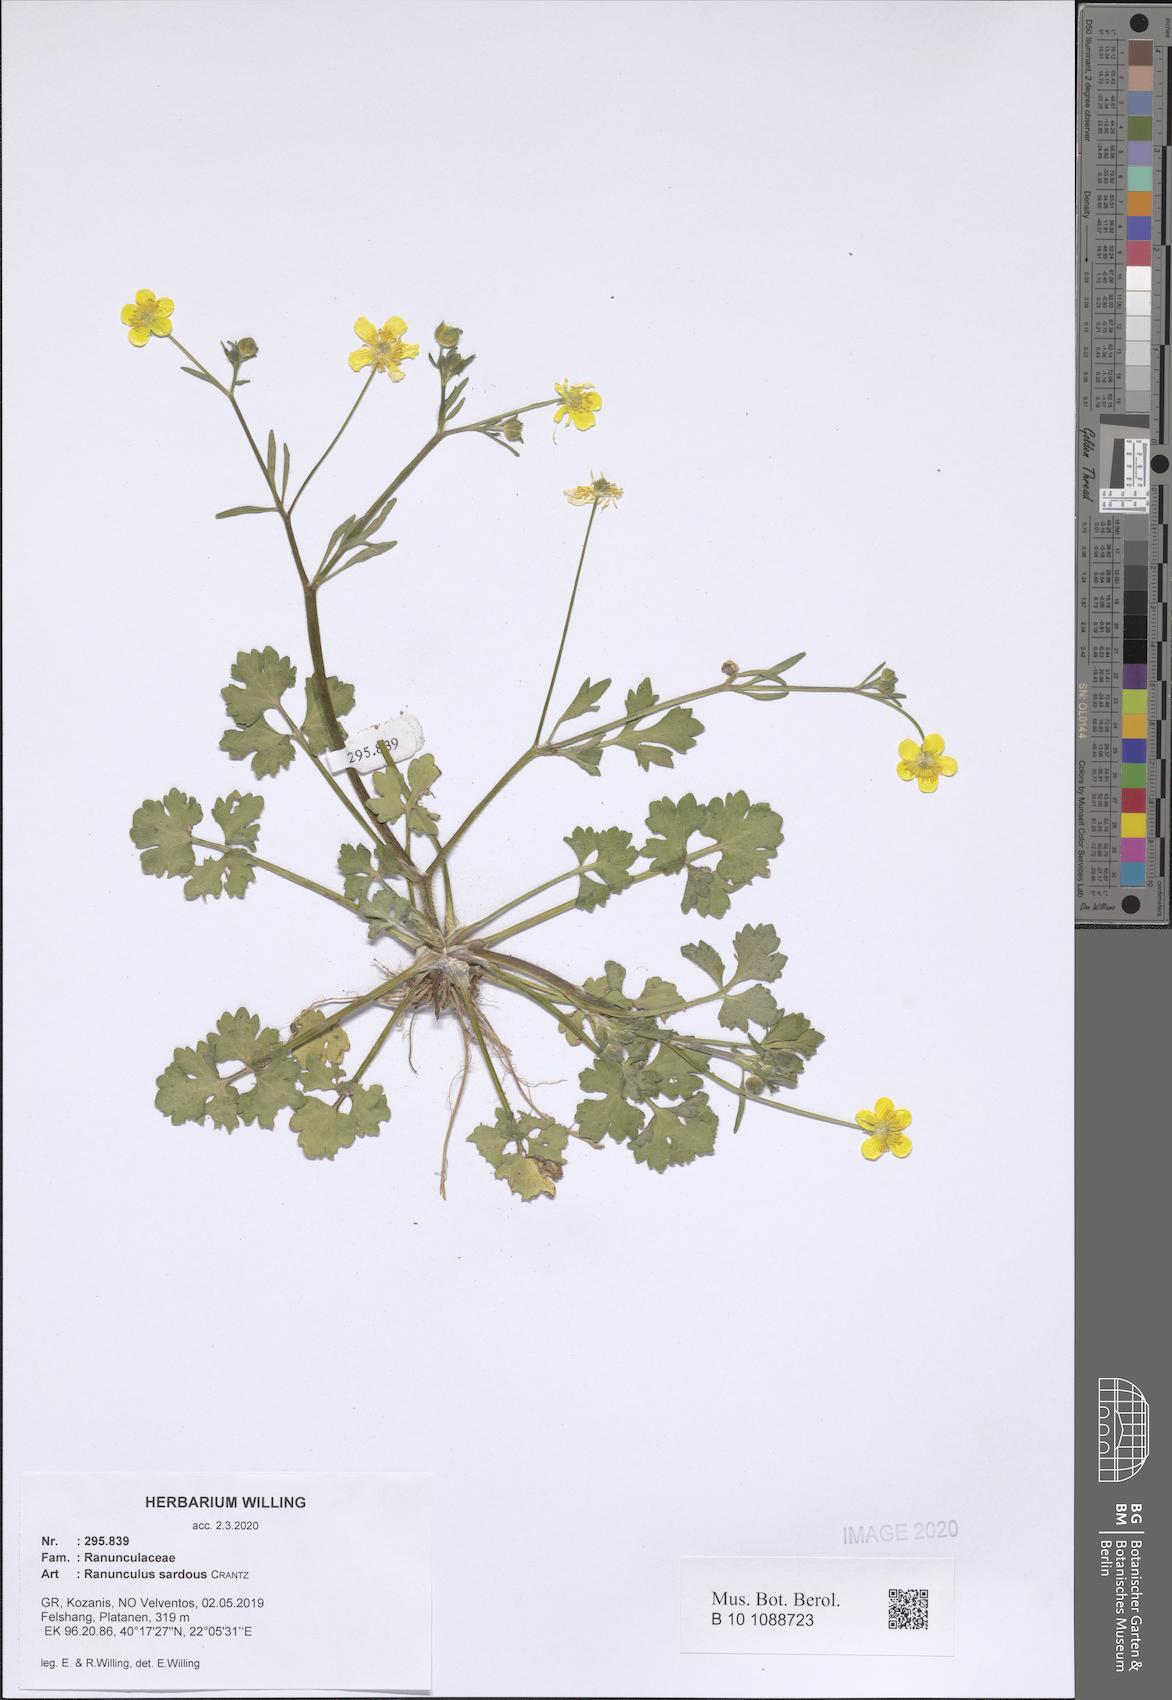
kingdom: Plantae
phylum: Tracheophyta
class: Magnoliopsida
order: Ranunculales
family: Ranunculaceae
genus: Ranunculus
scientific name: Ranunculus sardous
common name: Hairy buttercup
